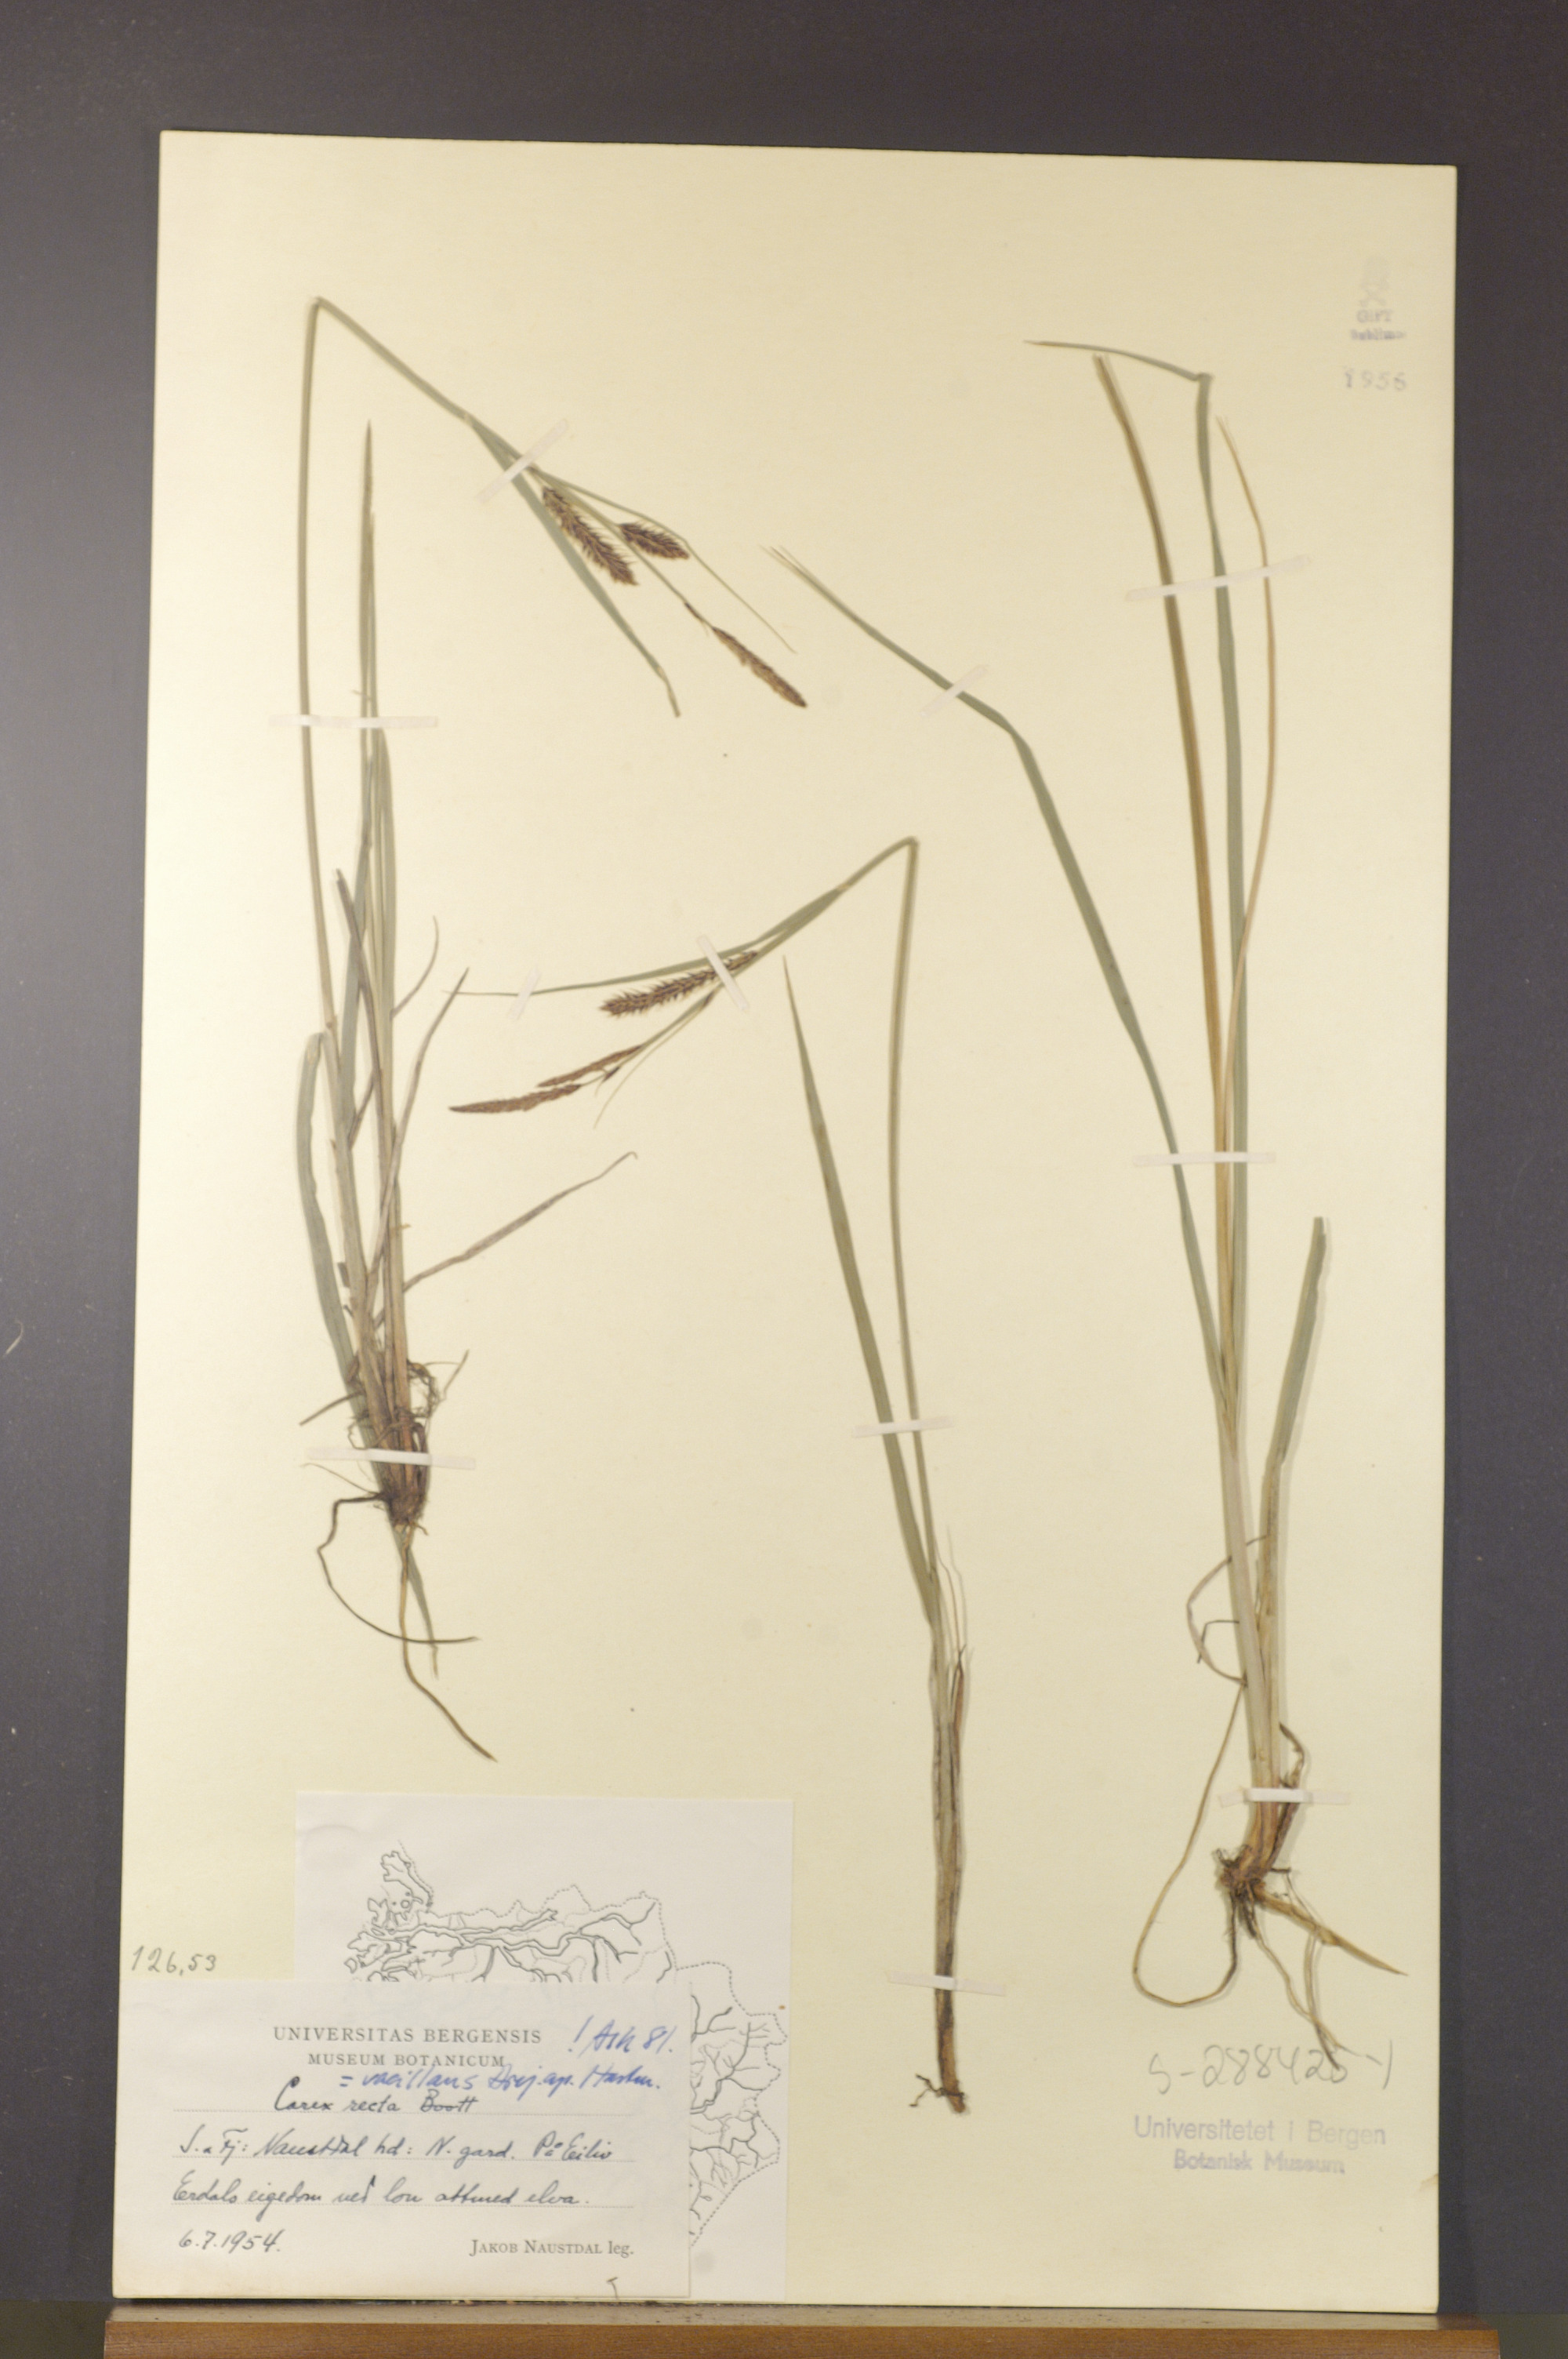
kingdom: Plantae
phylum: Tracheophyta
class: Liliopsida
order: Poales
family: Cyperaceae
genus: Carex
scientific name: Carex vacillans
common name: Sedge
